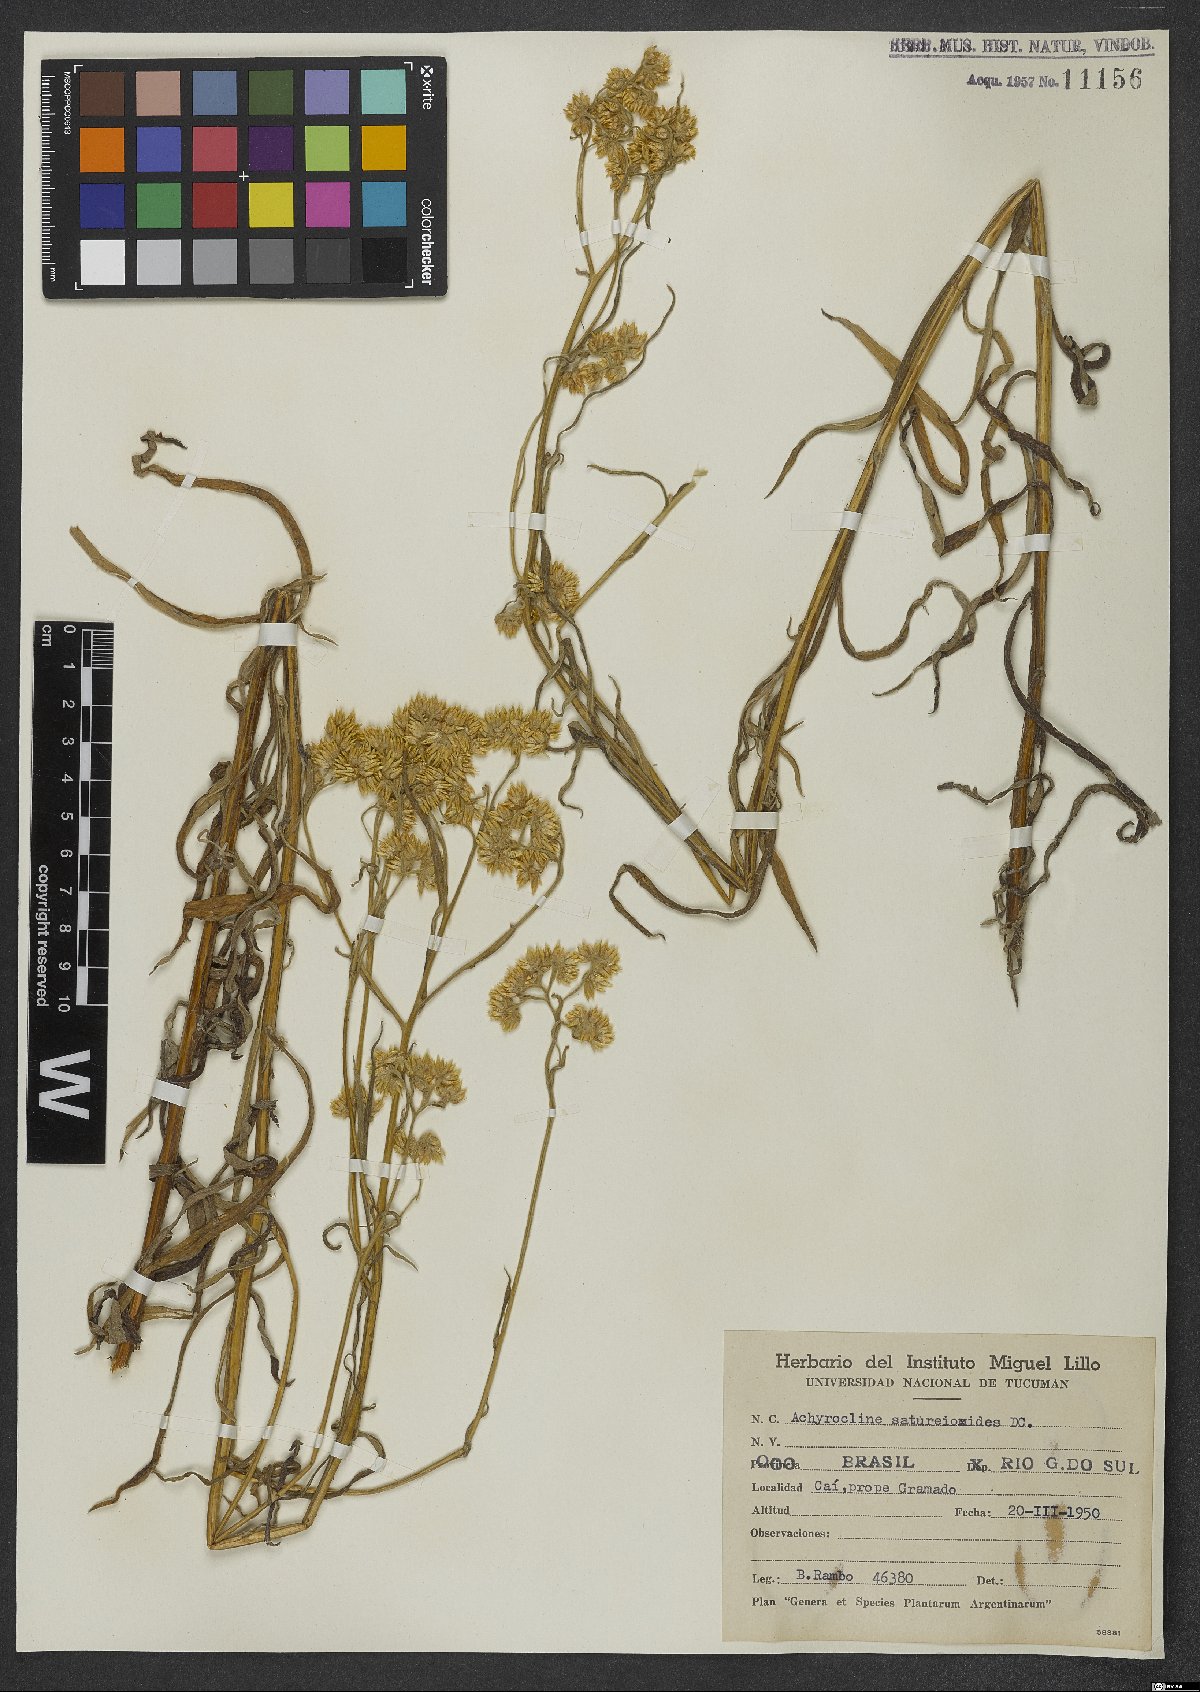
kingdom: Plantae
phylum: Tracheophyta
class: Magnoliopsida
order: Asterales
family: Asteraceae
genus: Achyrocline
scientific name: Achyrocline satureioides
